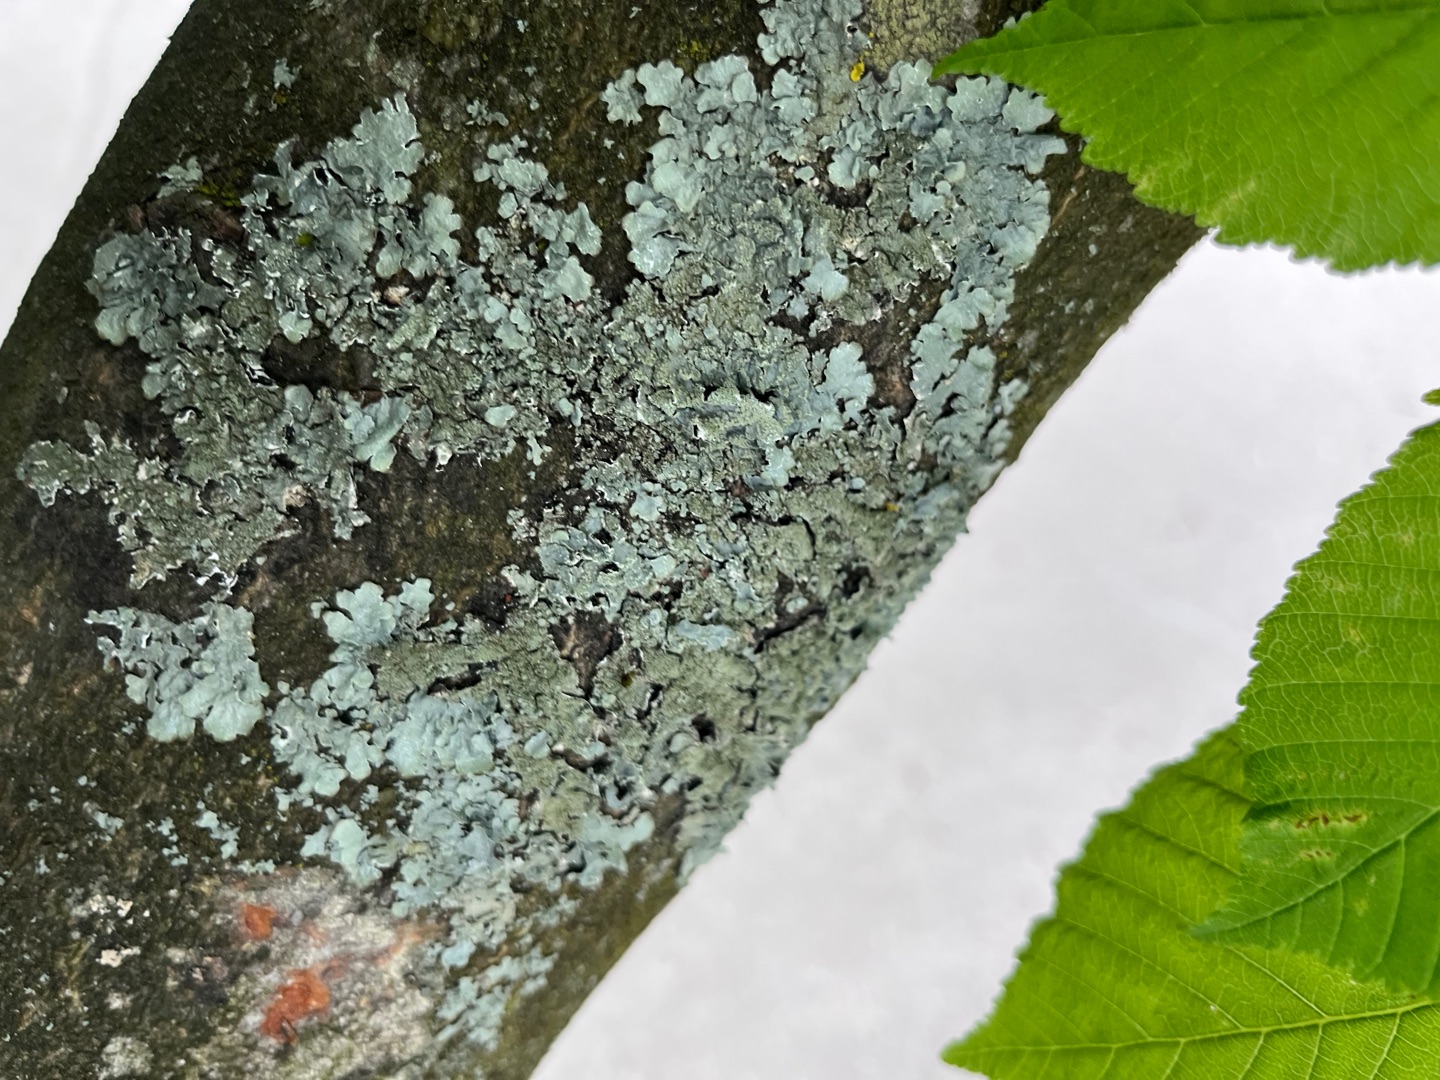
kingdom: Fungi
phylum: Ascomycota
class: Lecanoromycetes
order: Lecanorales
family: Parmeliaceae
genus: Parmelia
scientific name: Parmelia sulcata
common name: Rynket skållav
